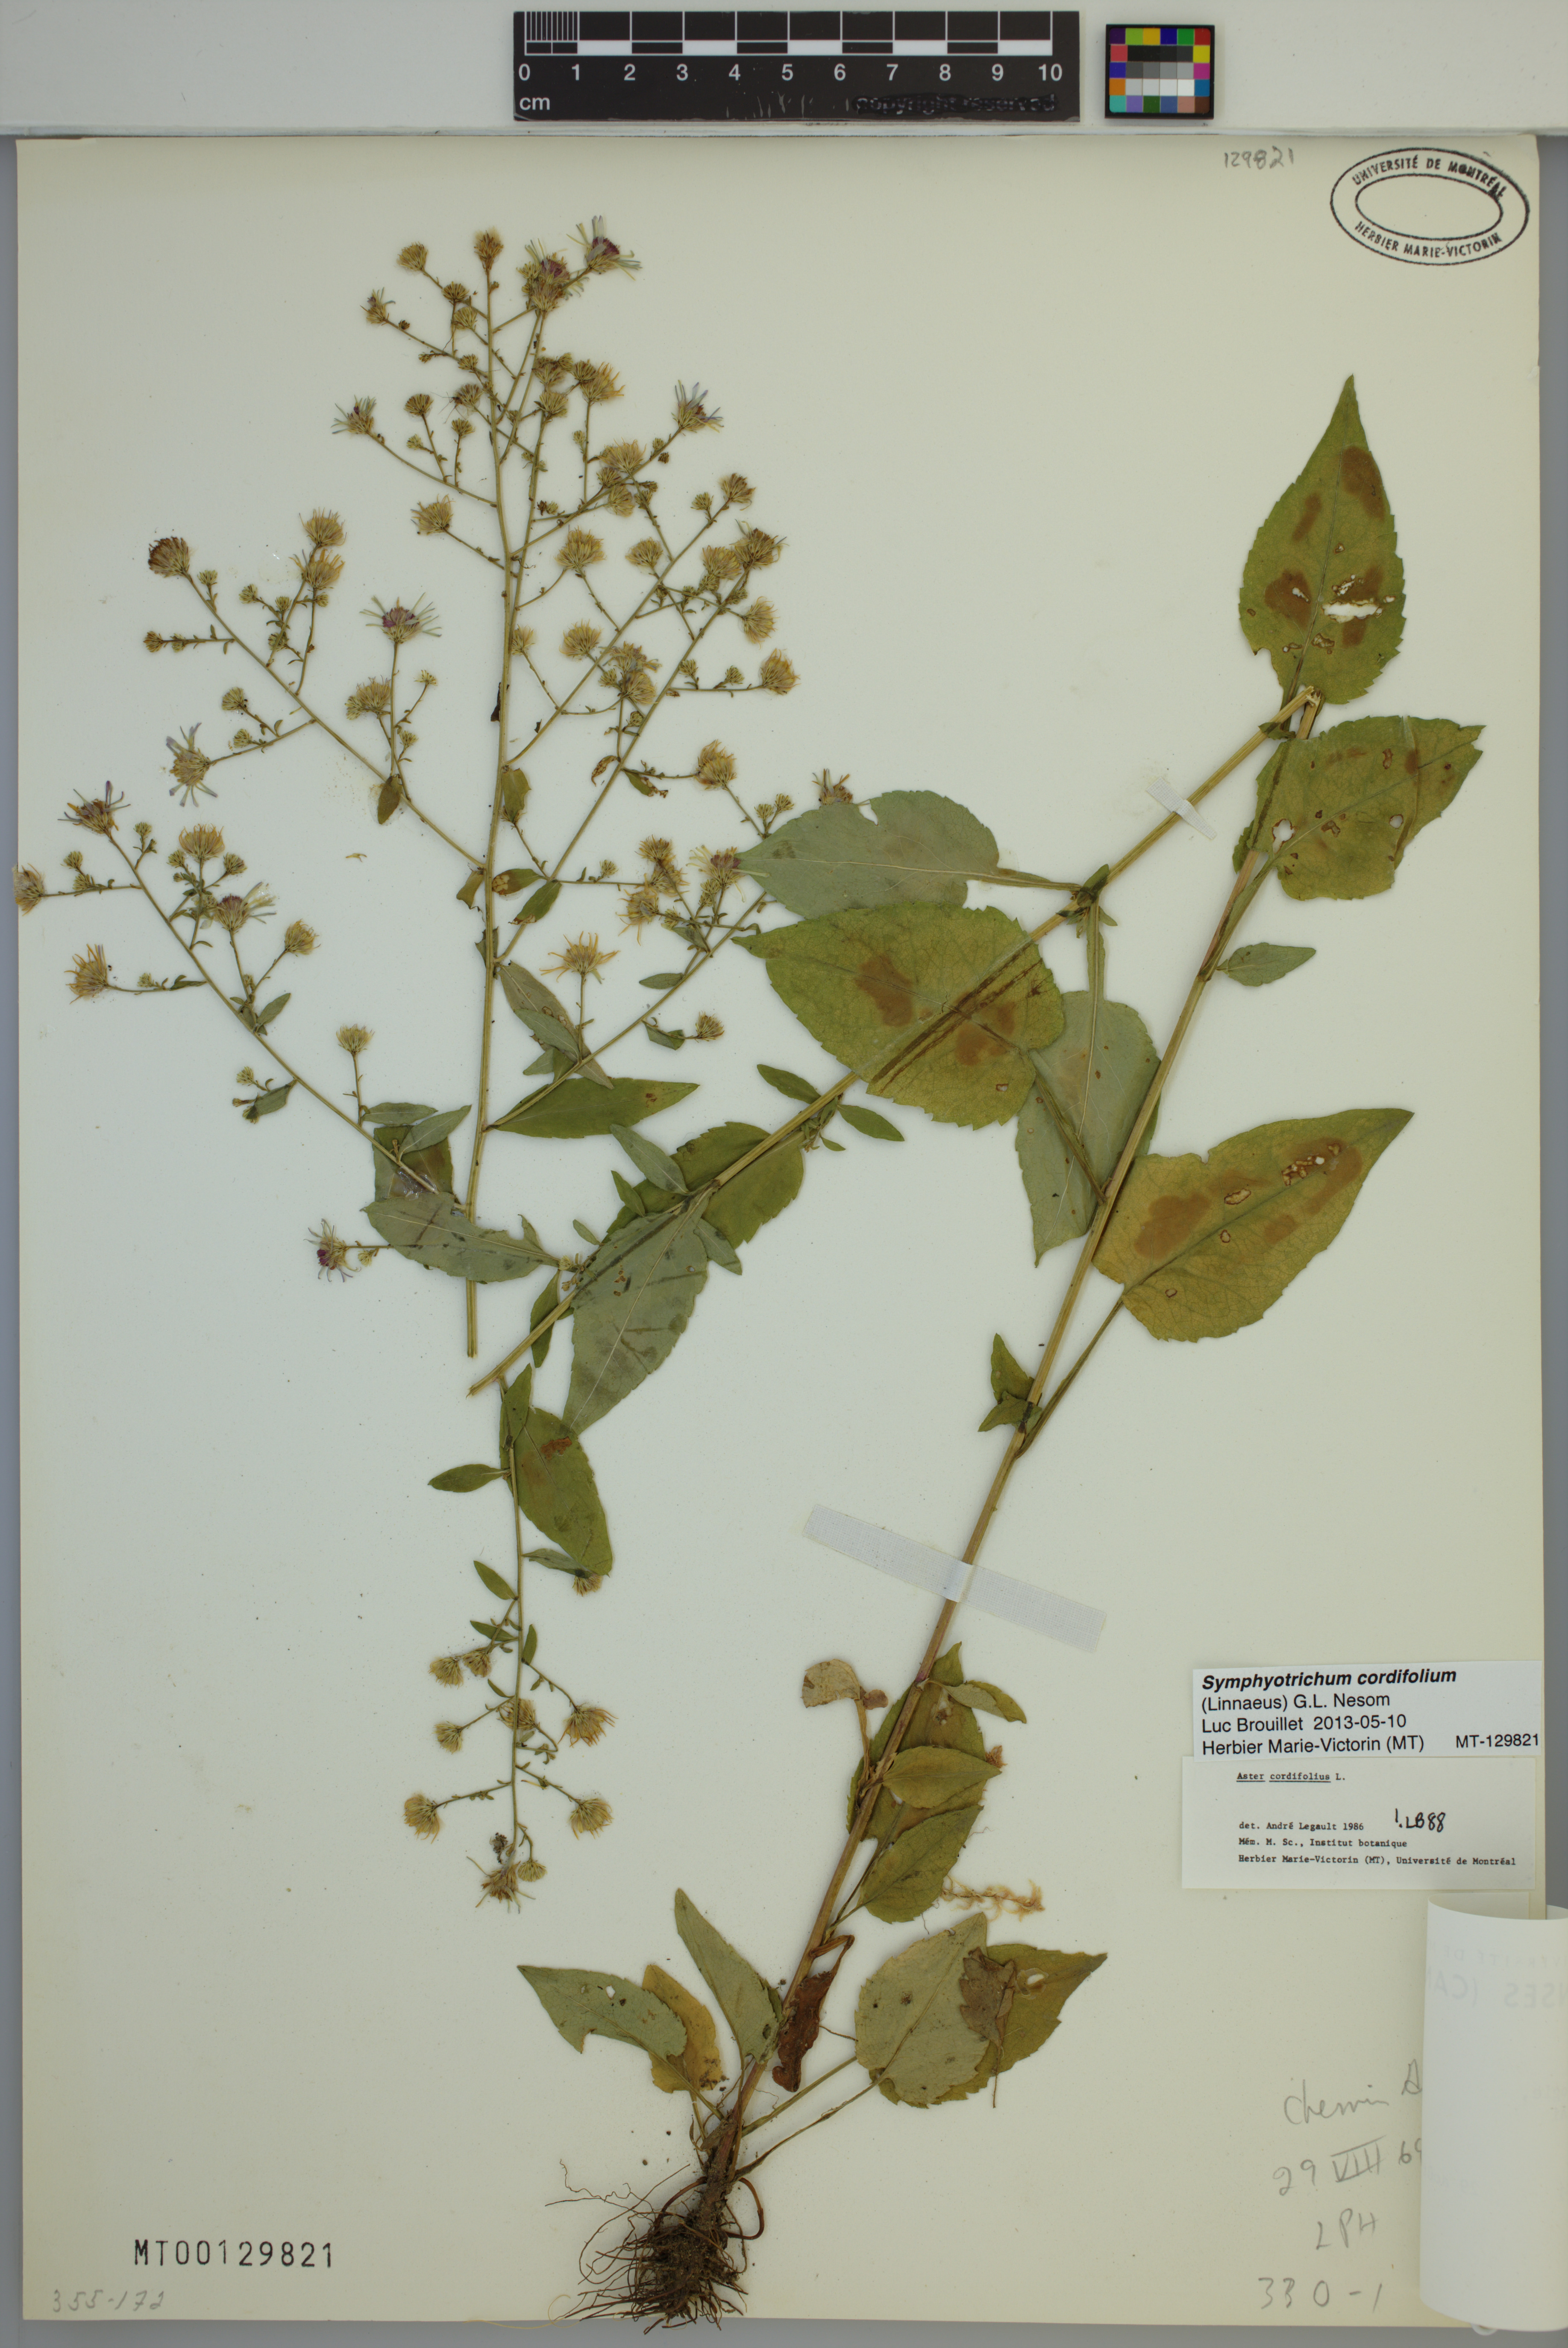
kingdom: Plantae
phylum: Tracheophyta
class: Magnoliopsida
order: Asterales
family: Asteraceae
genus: Symphyotrichum
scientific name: Symphyotrichum cordifolium
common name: Beeweed
